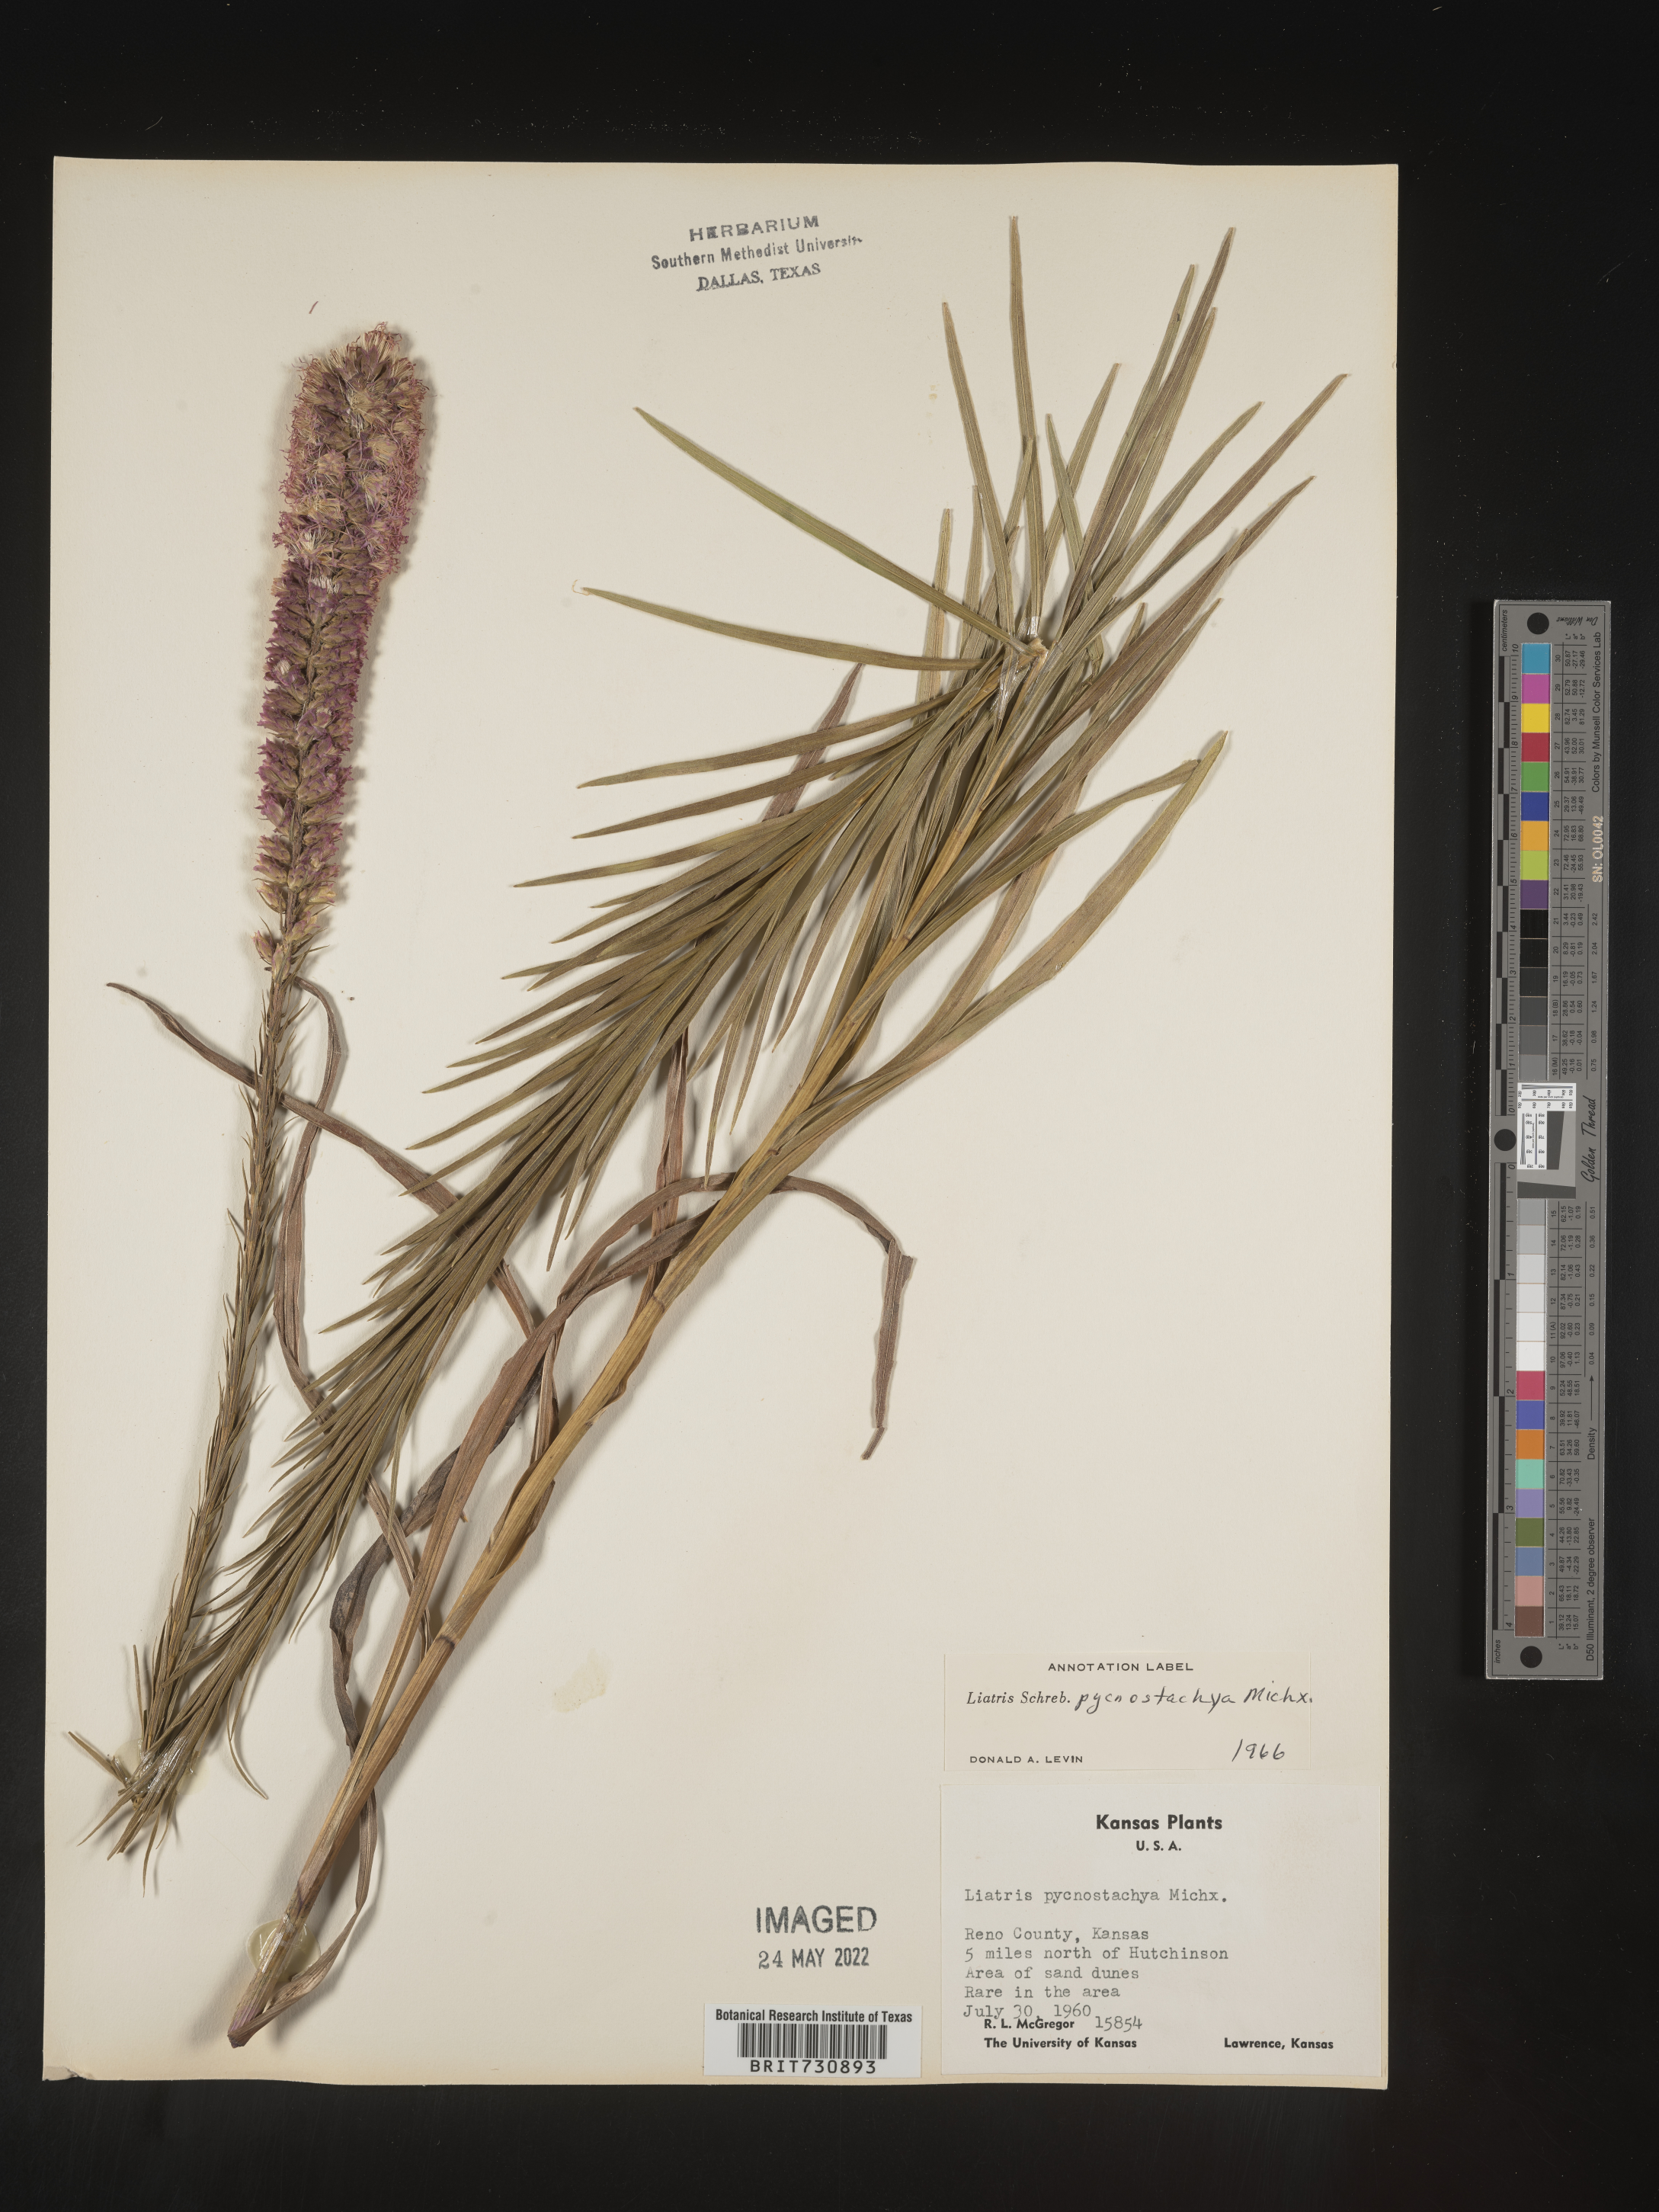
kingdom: Plantae
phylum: Tracheophyta
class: Magnoliopsida
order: Asterales
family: Asteraceae
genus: Liatris
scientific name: Liatris pycnostachya
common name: Cattail gayfeather
